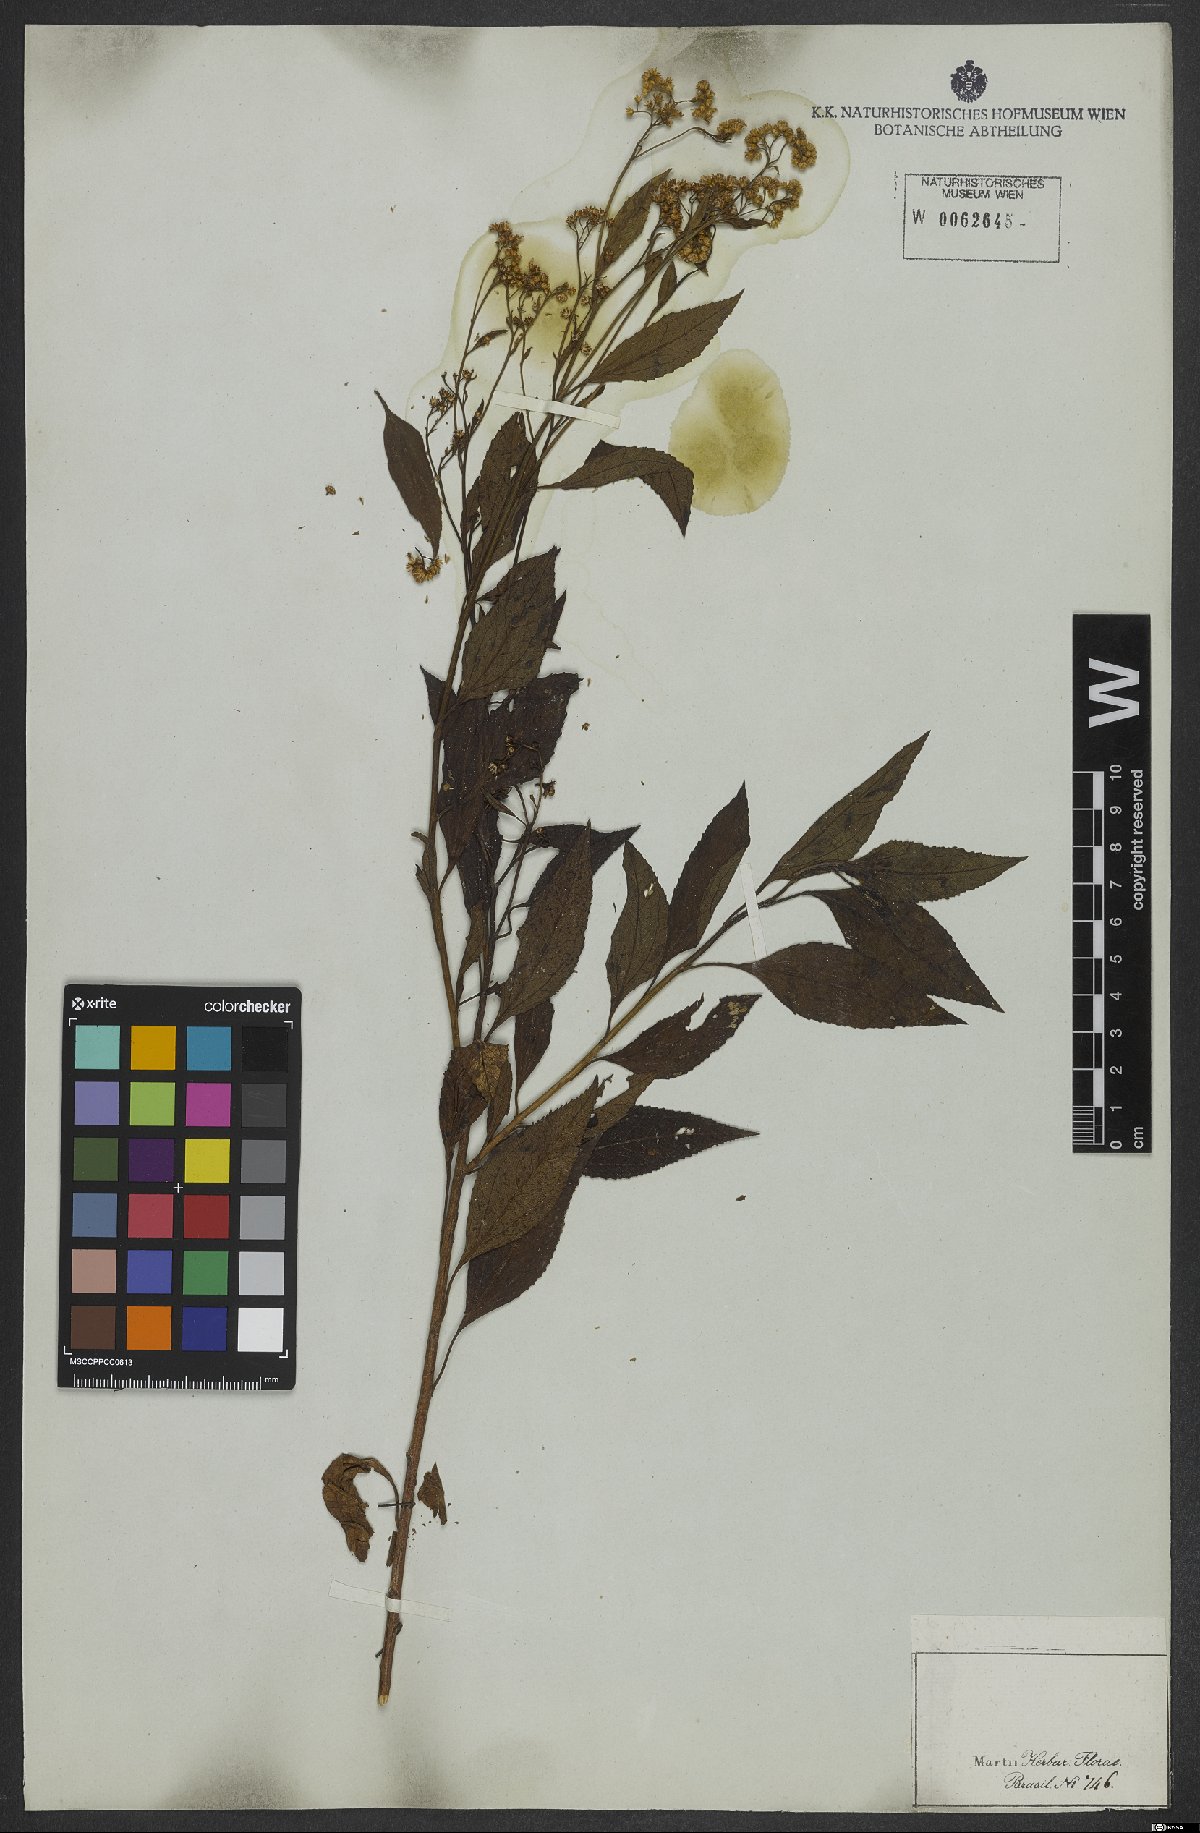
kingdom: Plantae
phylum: Tracheophyta
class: Magnoliopsida
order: Asterales
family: Asteraceae
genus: Archibaccharis
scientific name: Archibaccharis vulneraria
